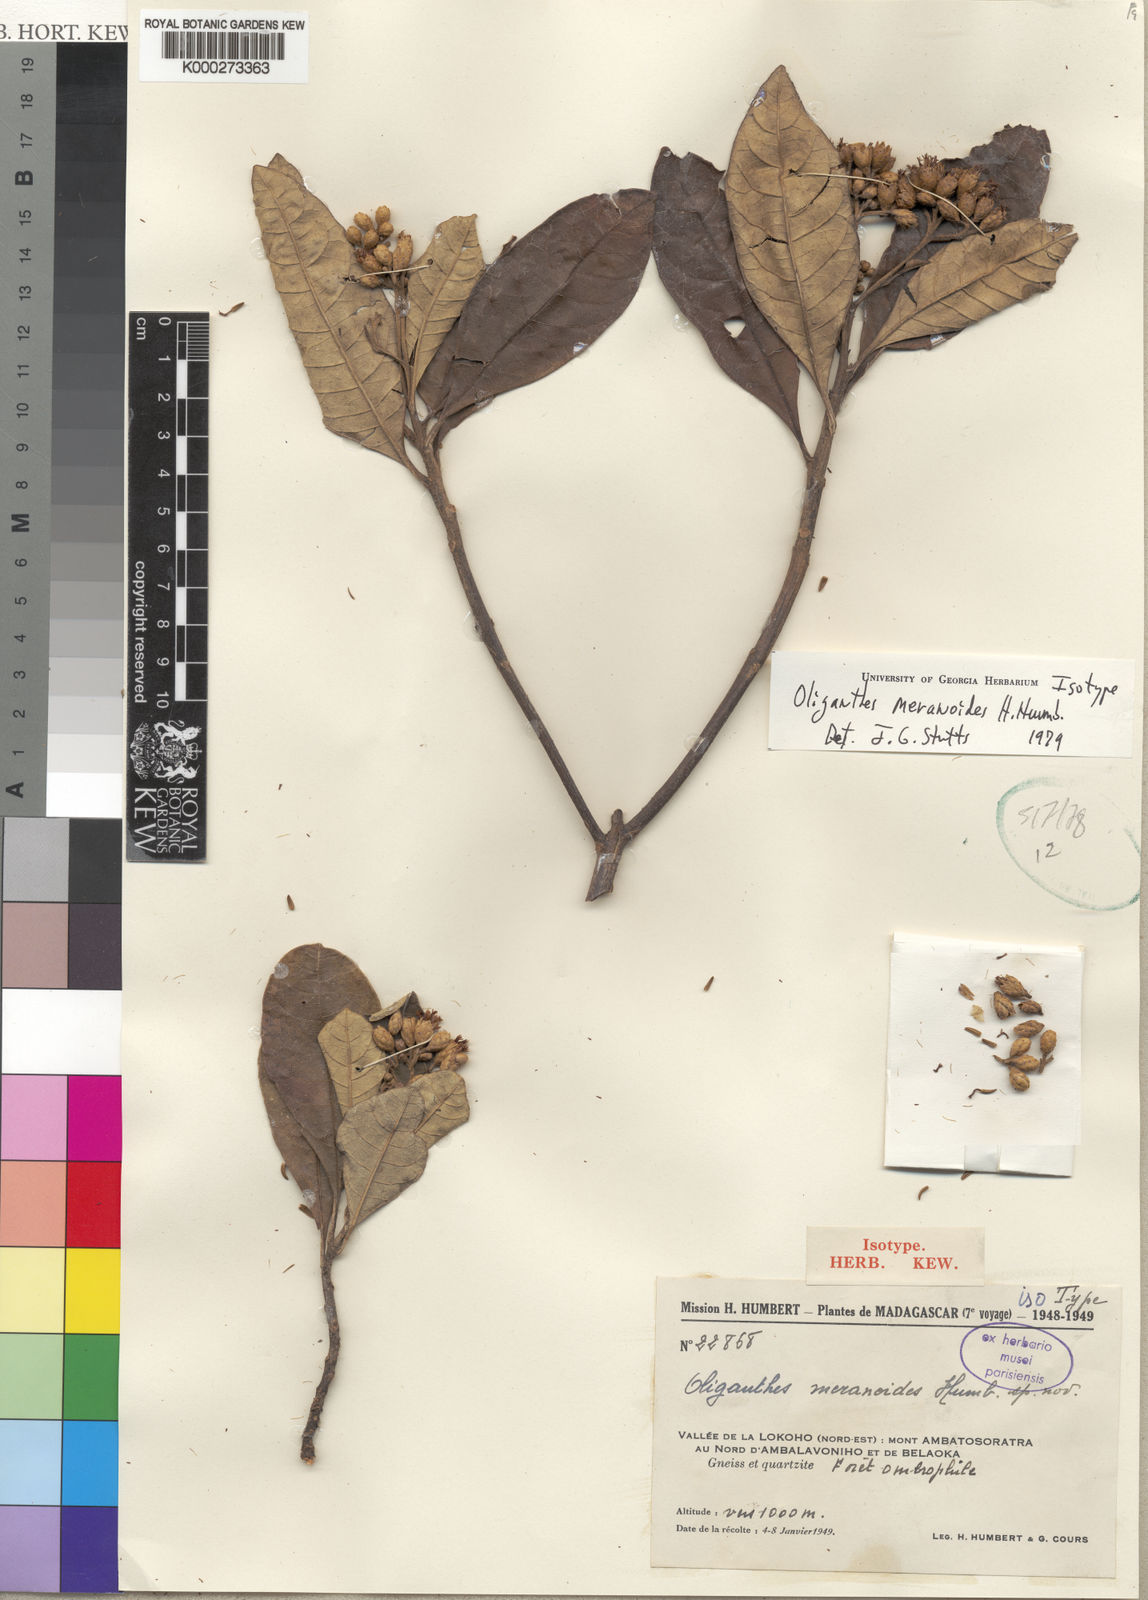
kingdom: Plantae
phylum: Tracheophyta
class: Magnoliopsida
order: Asterales
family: Asteraceae
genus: Oliganthes
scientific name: Oliganthes meranoides
